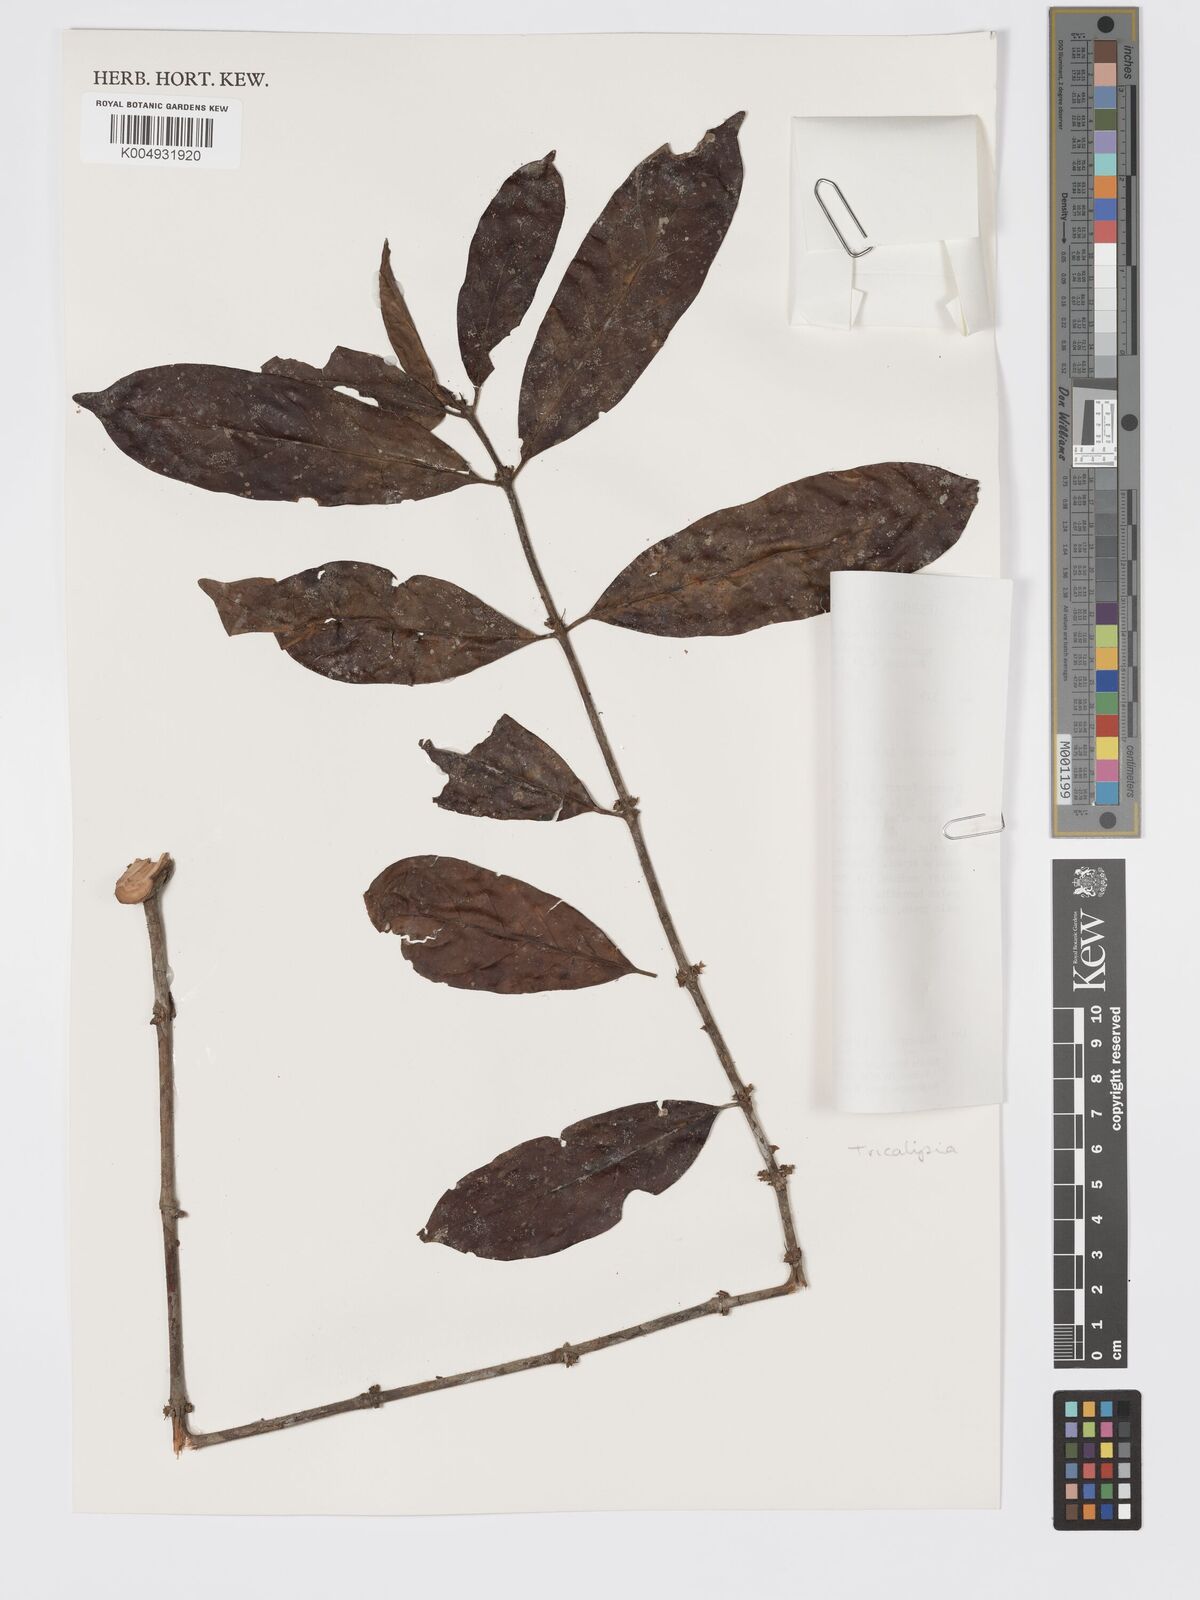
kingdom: Plantae
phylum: Tracheophyta
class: Magnoliopsida
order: Gentianales
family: Rubiaceae
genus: Tricalysia
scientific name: Tricalysia
